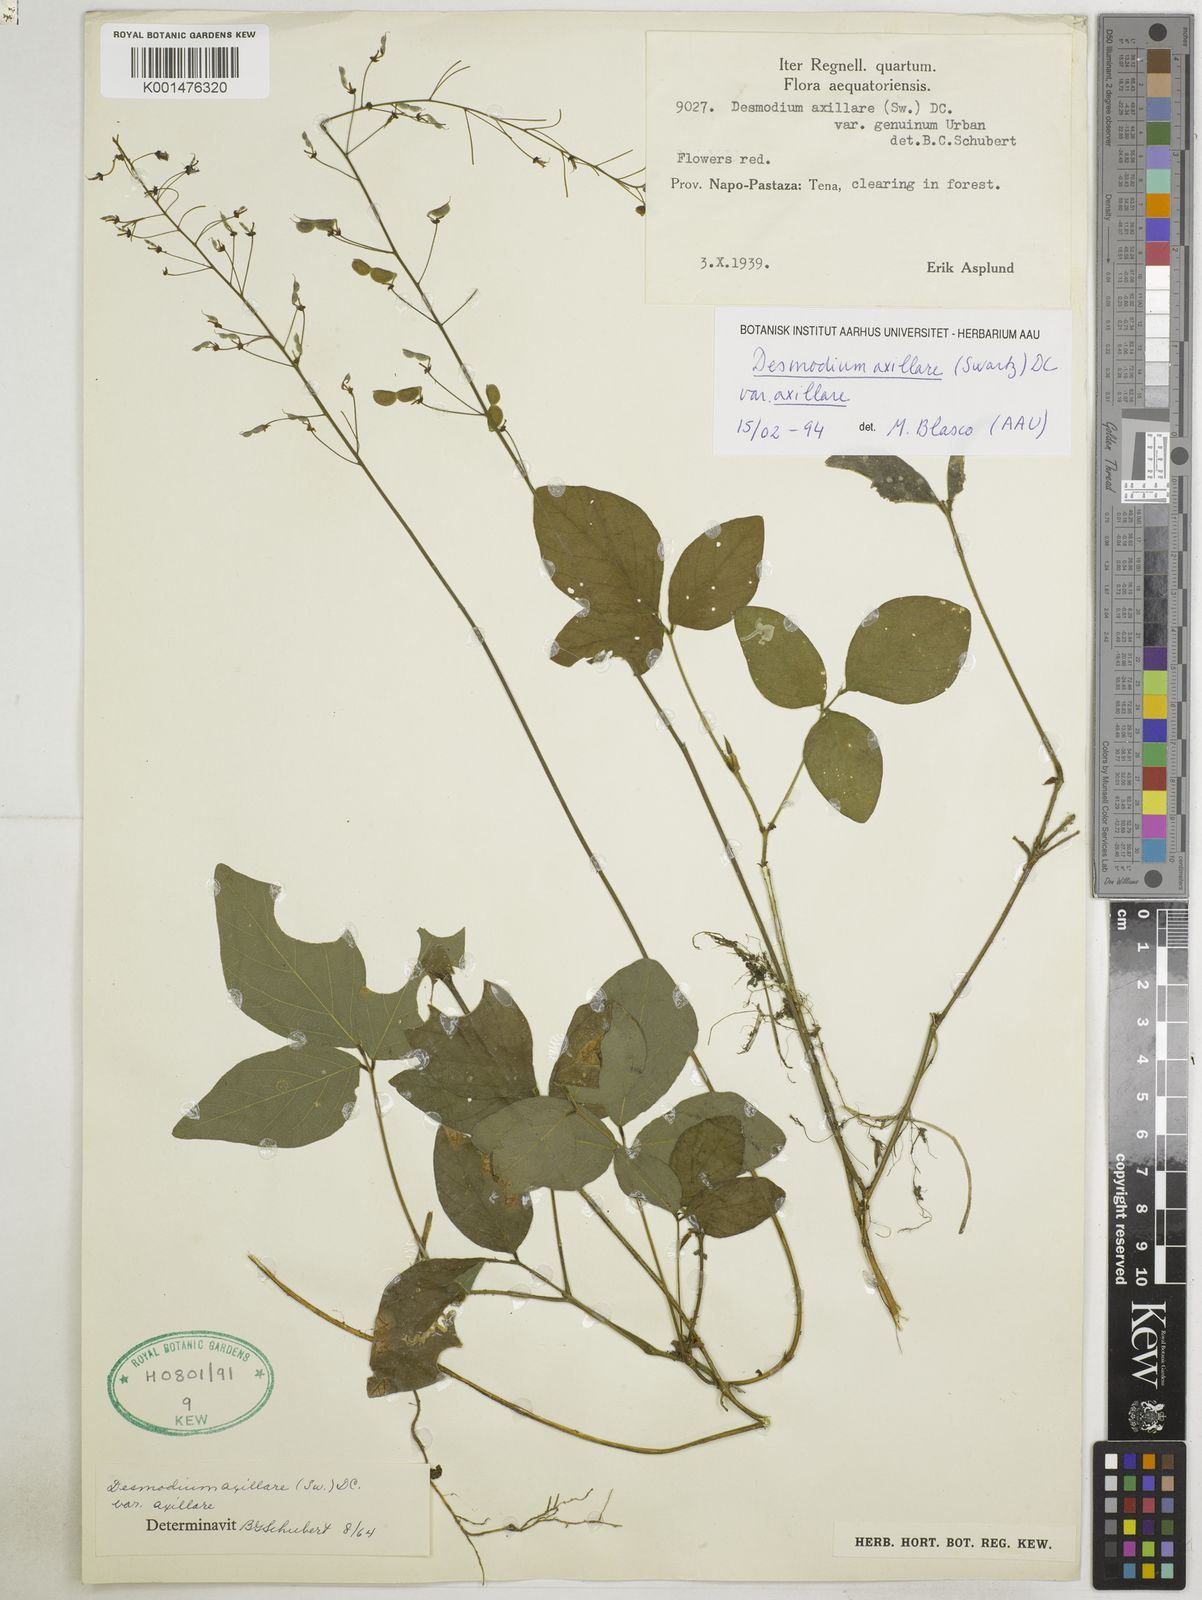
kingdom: Plantae
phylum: Tracheophyta
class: Magnoliopsida
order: Fabales
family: Fabaceae
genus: Desmodium
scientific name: Desmodium axillare
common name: Wire with
